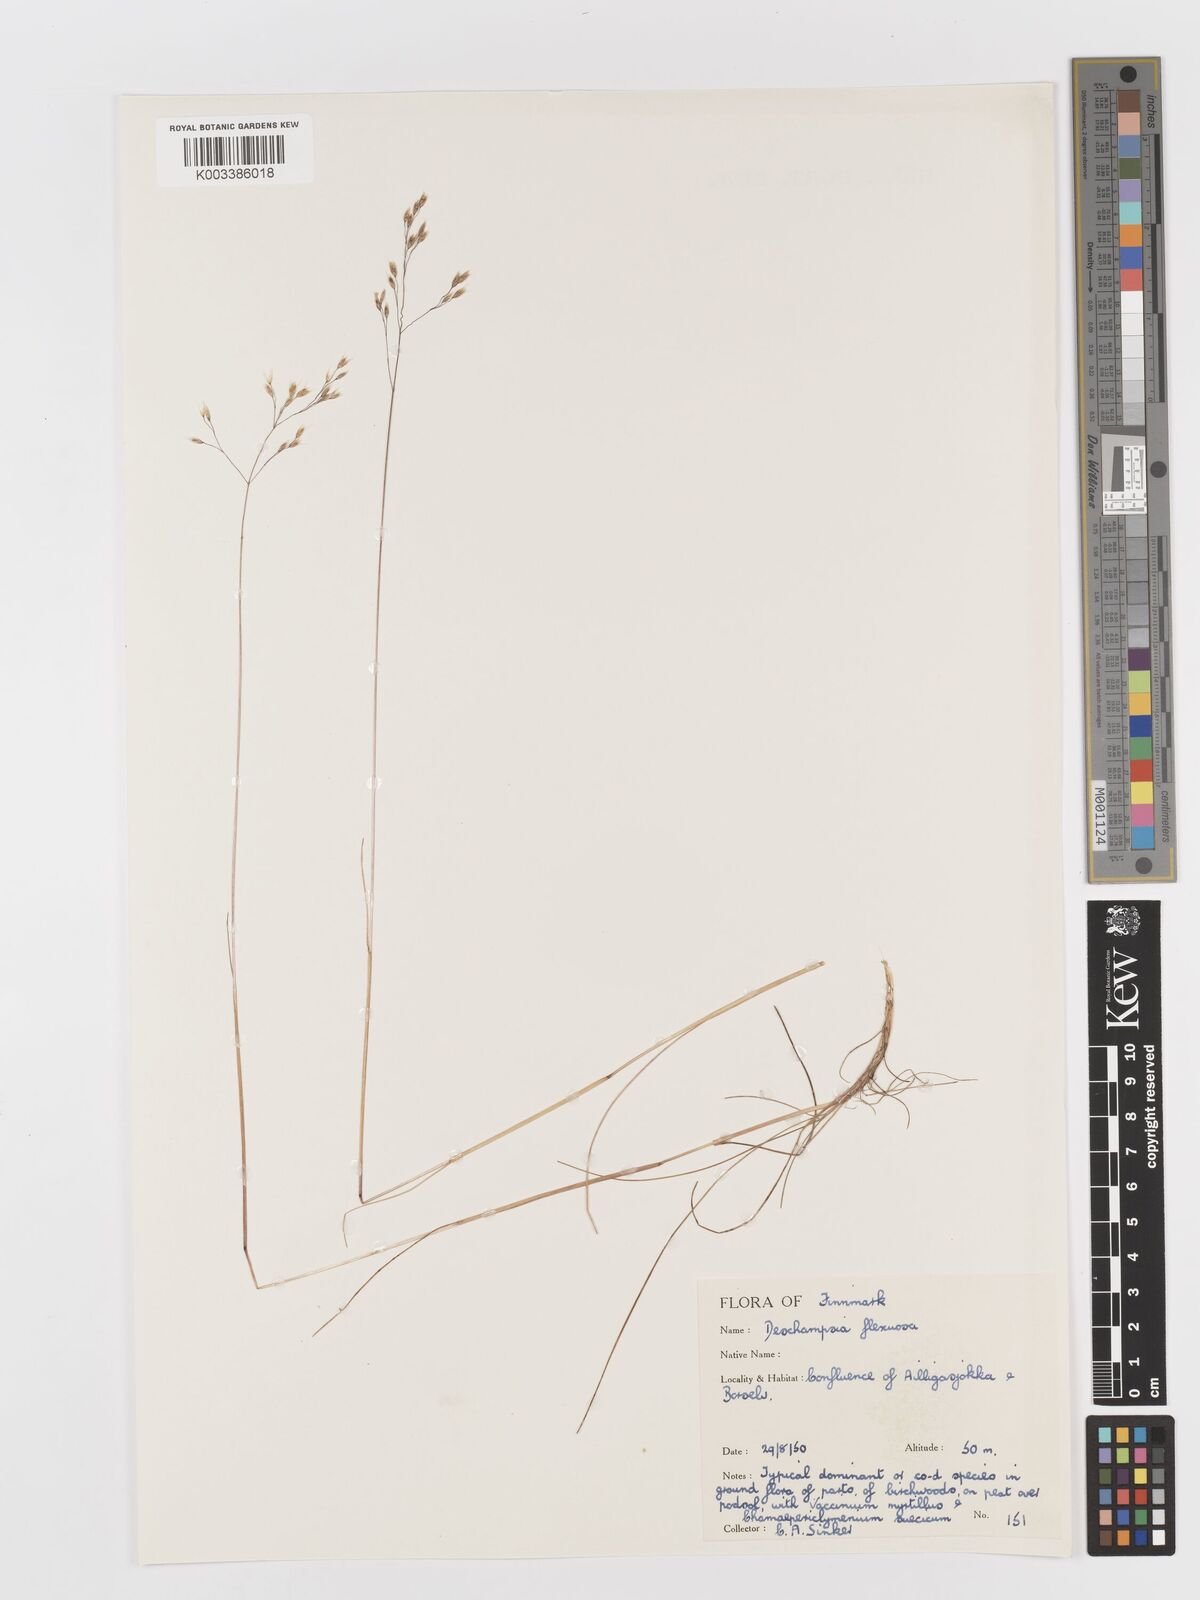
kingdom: Plantae
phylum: Tracheophyta
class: Liliopsida
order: Poales
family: Poaceae
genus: Avenella
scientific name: Avenella flexuosa
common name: Wavy hairgrass
